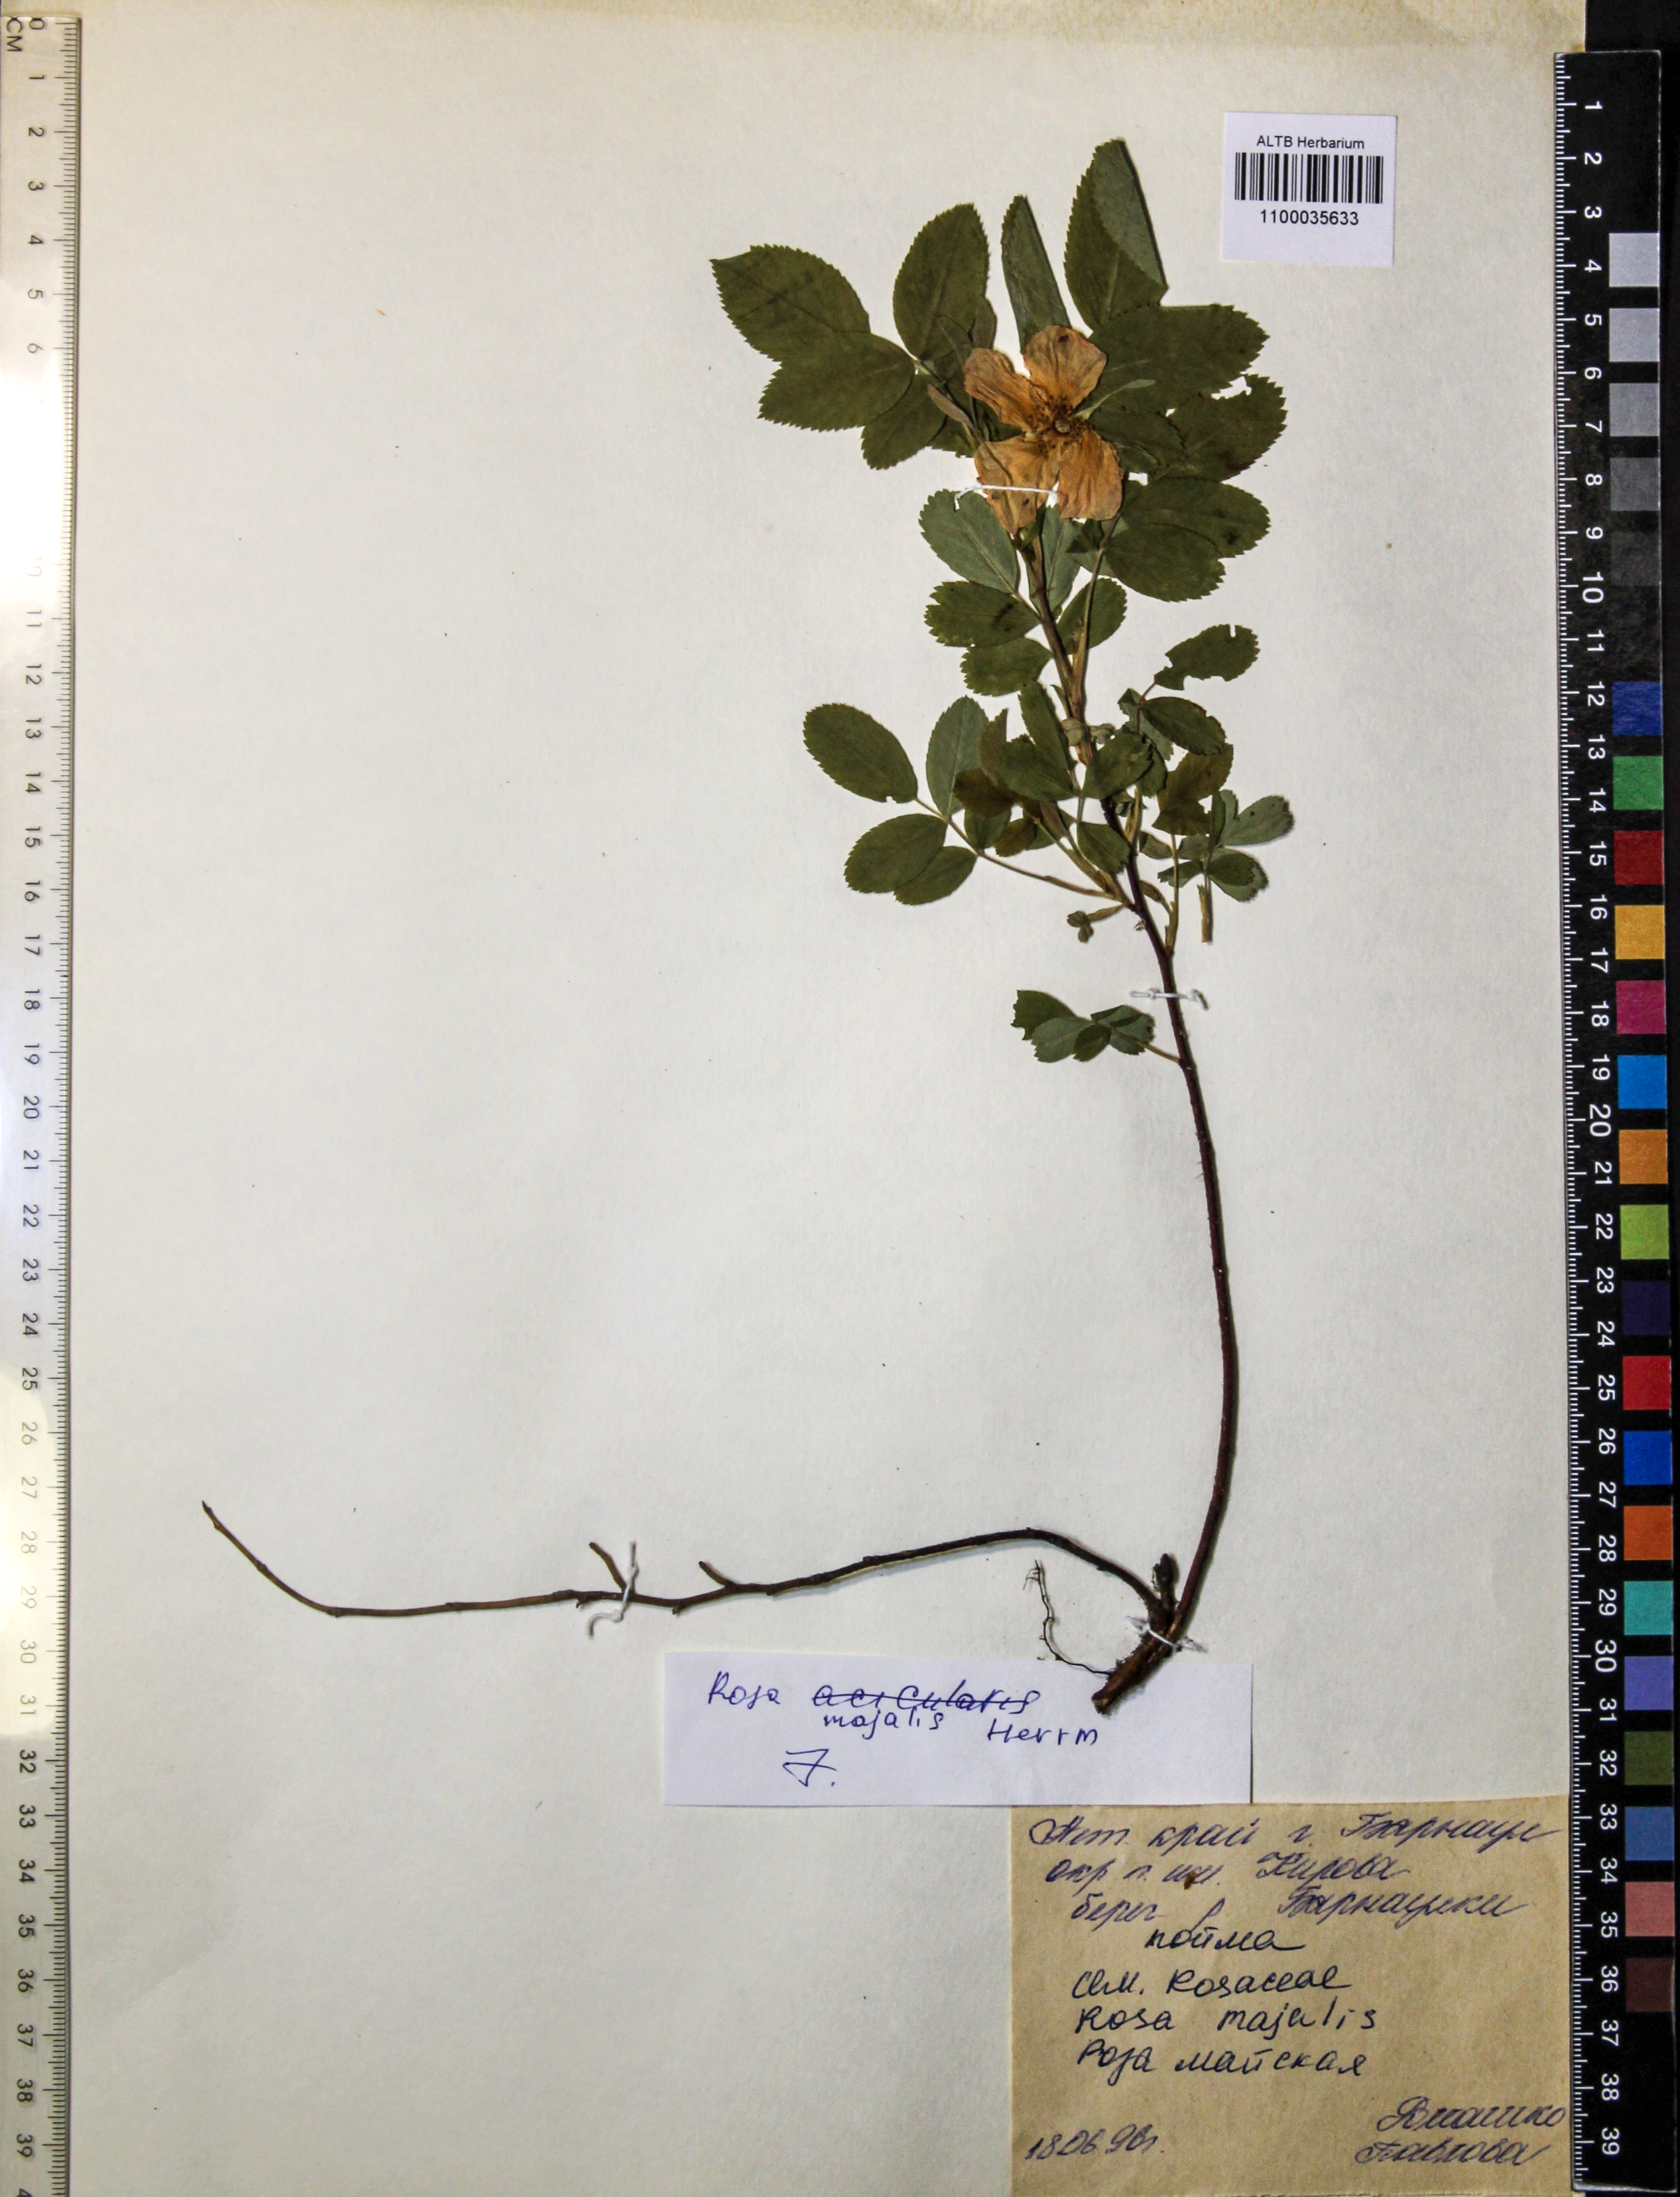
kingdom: Plantae
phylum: Tracheophyta
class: Magnoliopsida
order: Rosales
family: Rosaceae
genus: Rosa
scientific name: Rosa majalis
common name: Cinnamon rose
